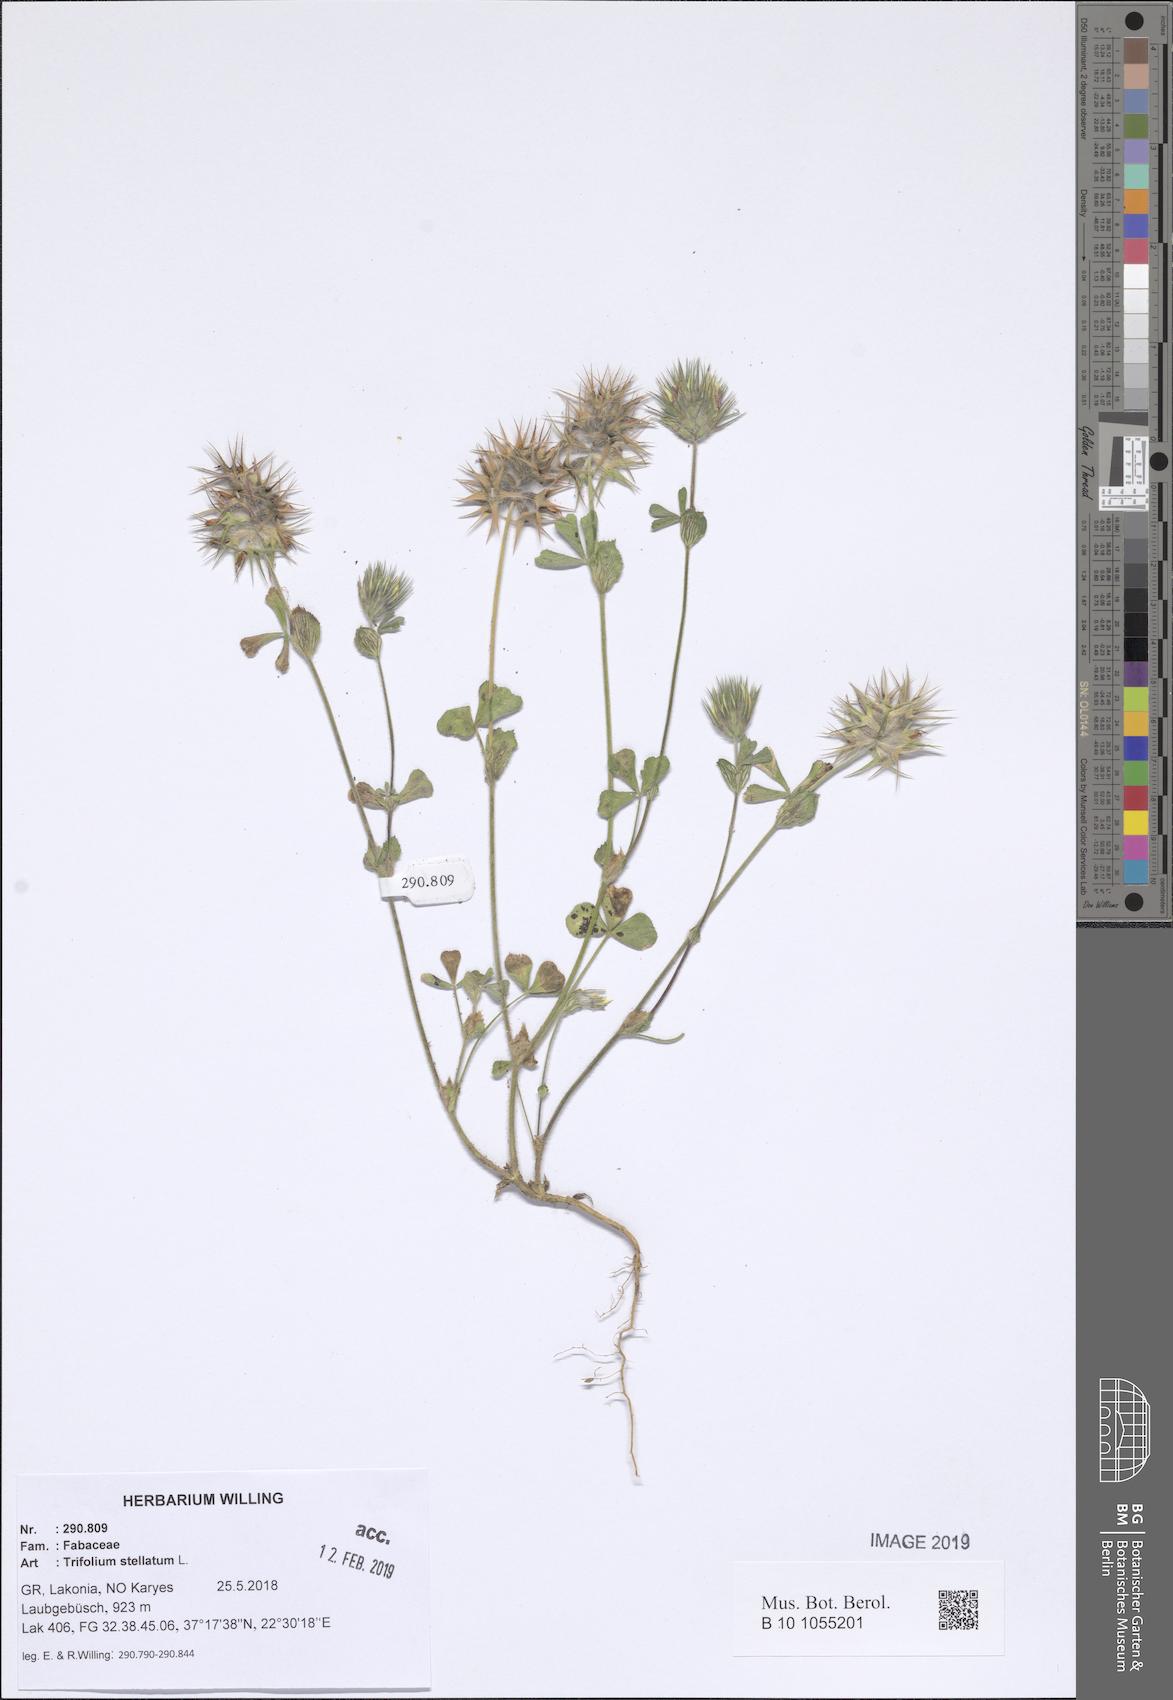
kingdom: Plantae
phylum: Tracheophyta
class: Magnoliopsida
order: Fabales
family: Fabaceae
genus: Trifolium
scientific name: Trifolium stellatum
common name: Starry clover
